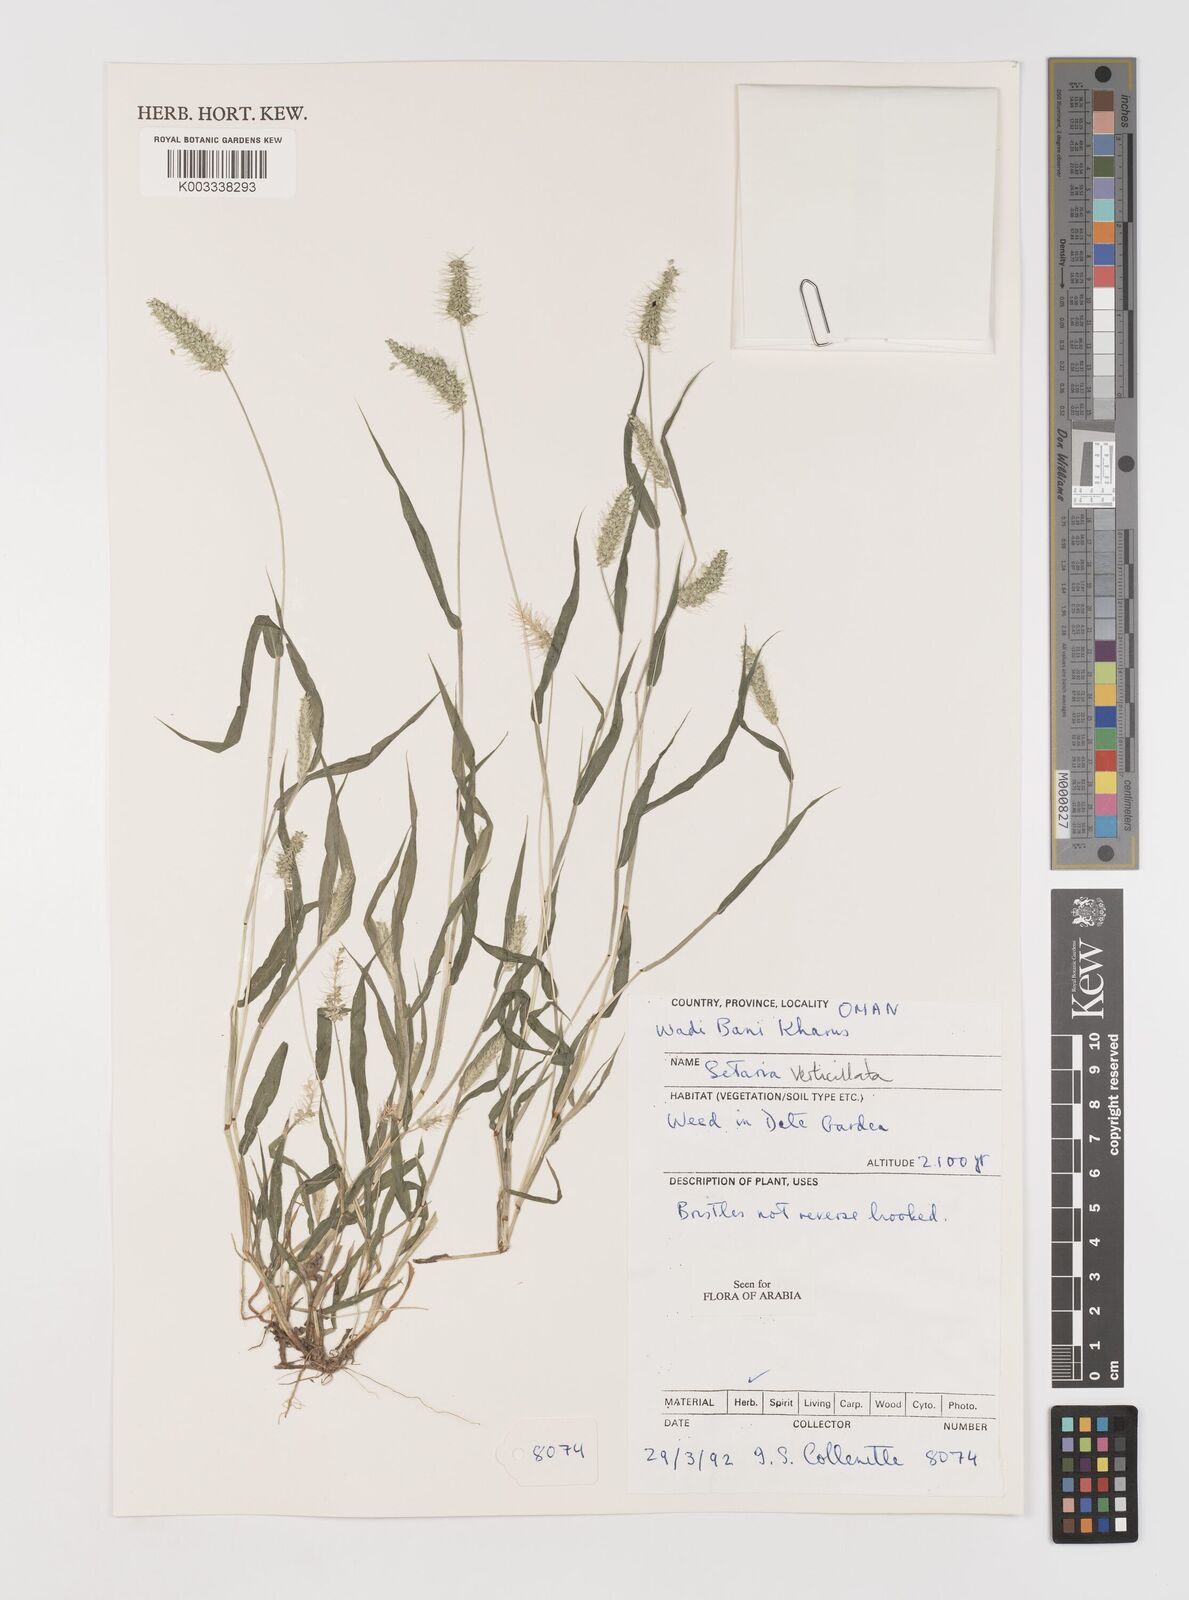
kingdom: Plantae
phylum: Tracheophyta
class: Liliopsida
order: Poales
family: Poaceae
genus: Setaria
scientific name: Setaria verticillata
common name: Hooked bristlegrass
